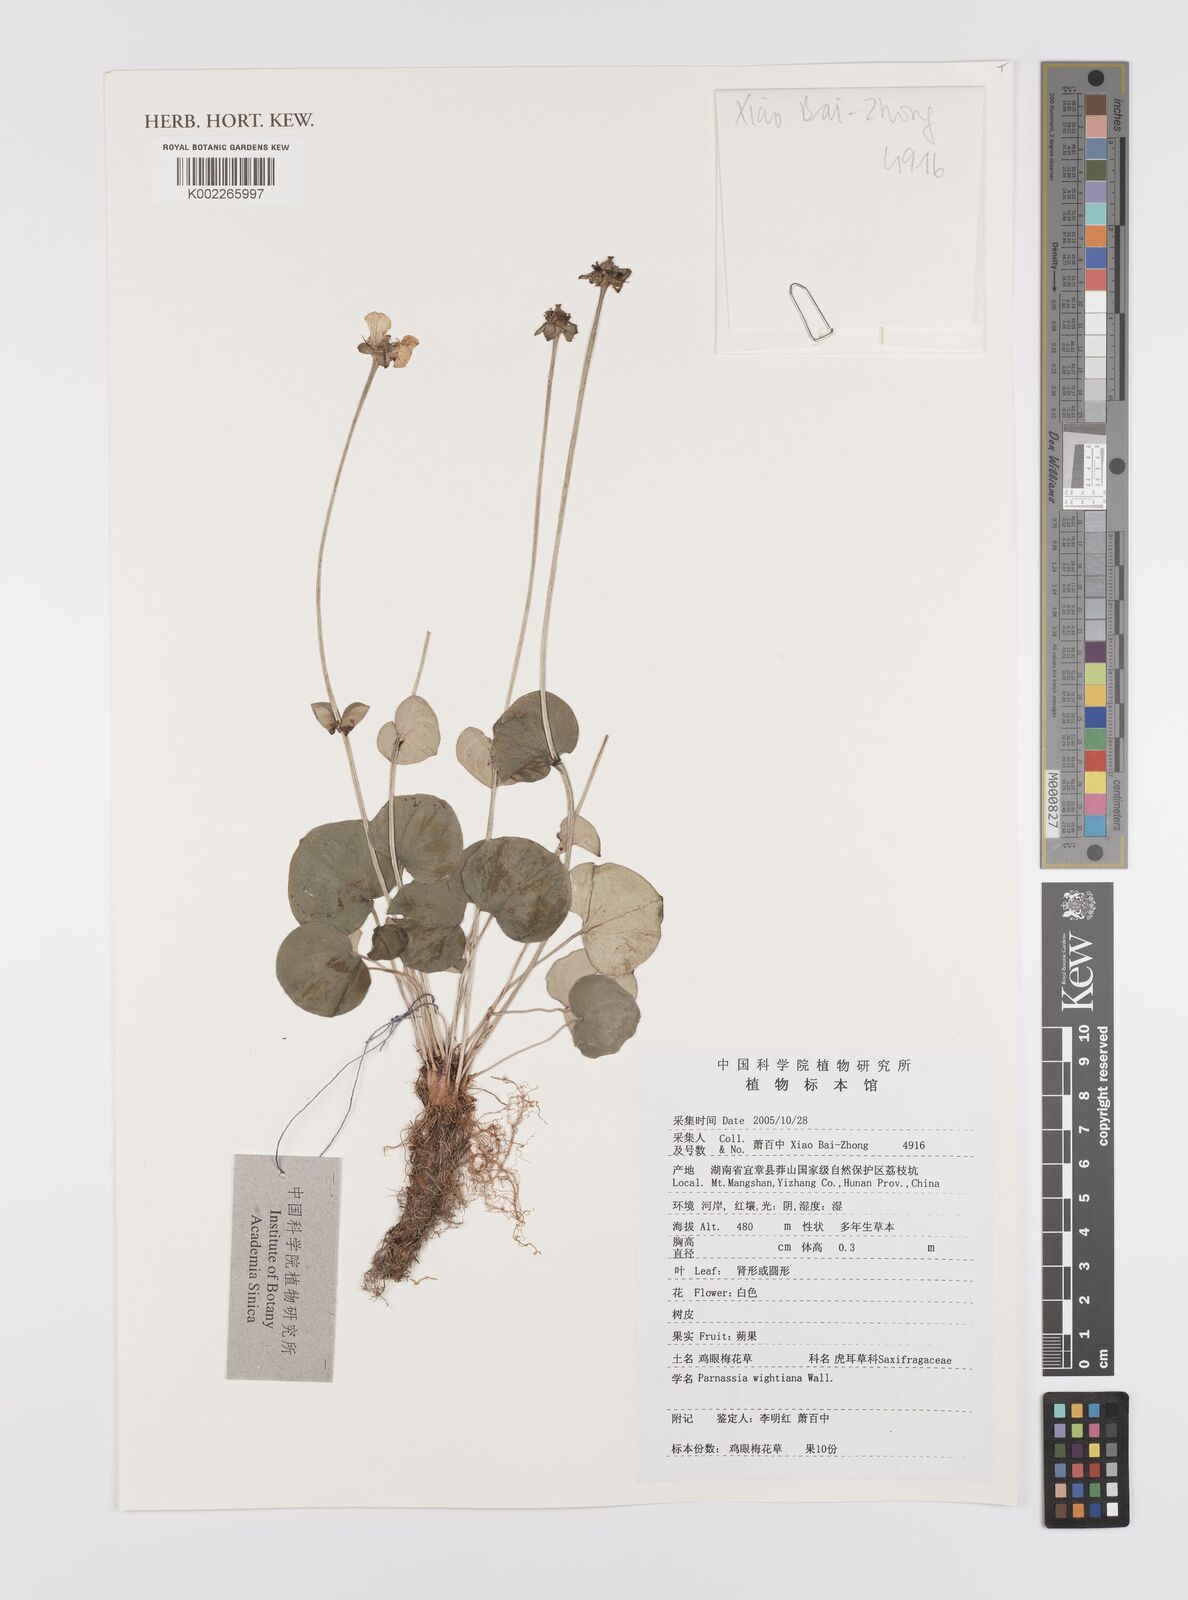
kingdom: Plantae
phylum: Tracheophyta
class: Magnoliopsida
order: Celastrales
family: Parnassiaceae
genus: Parnassia
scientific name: Parnassia wightiana
